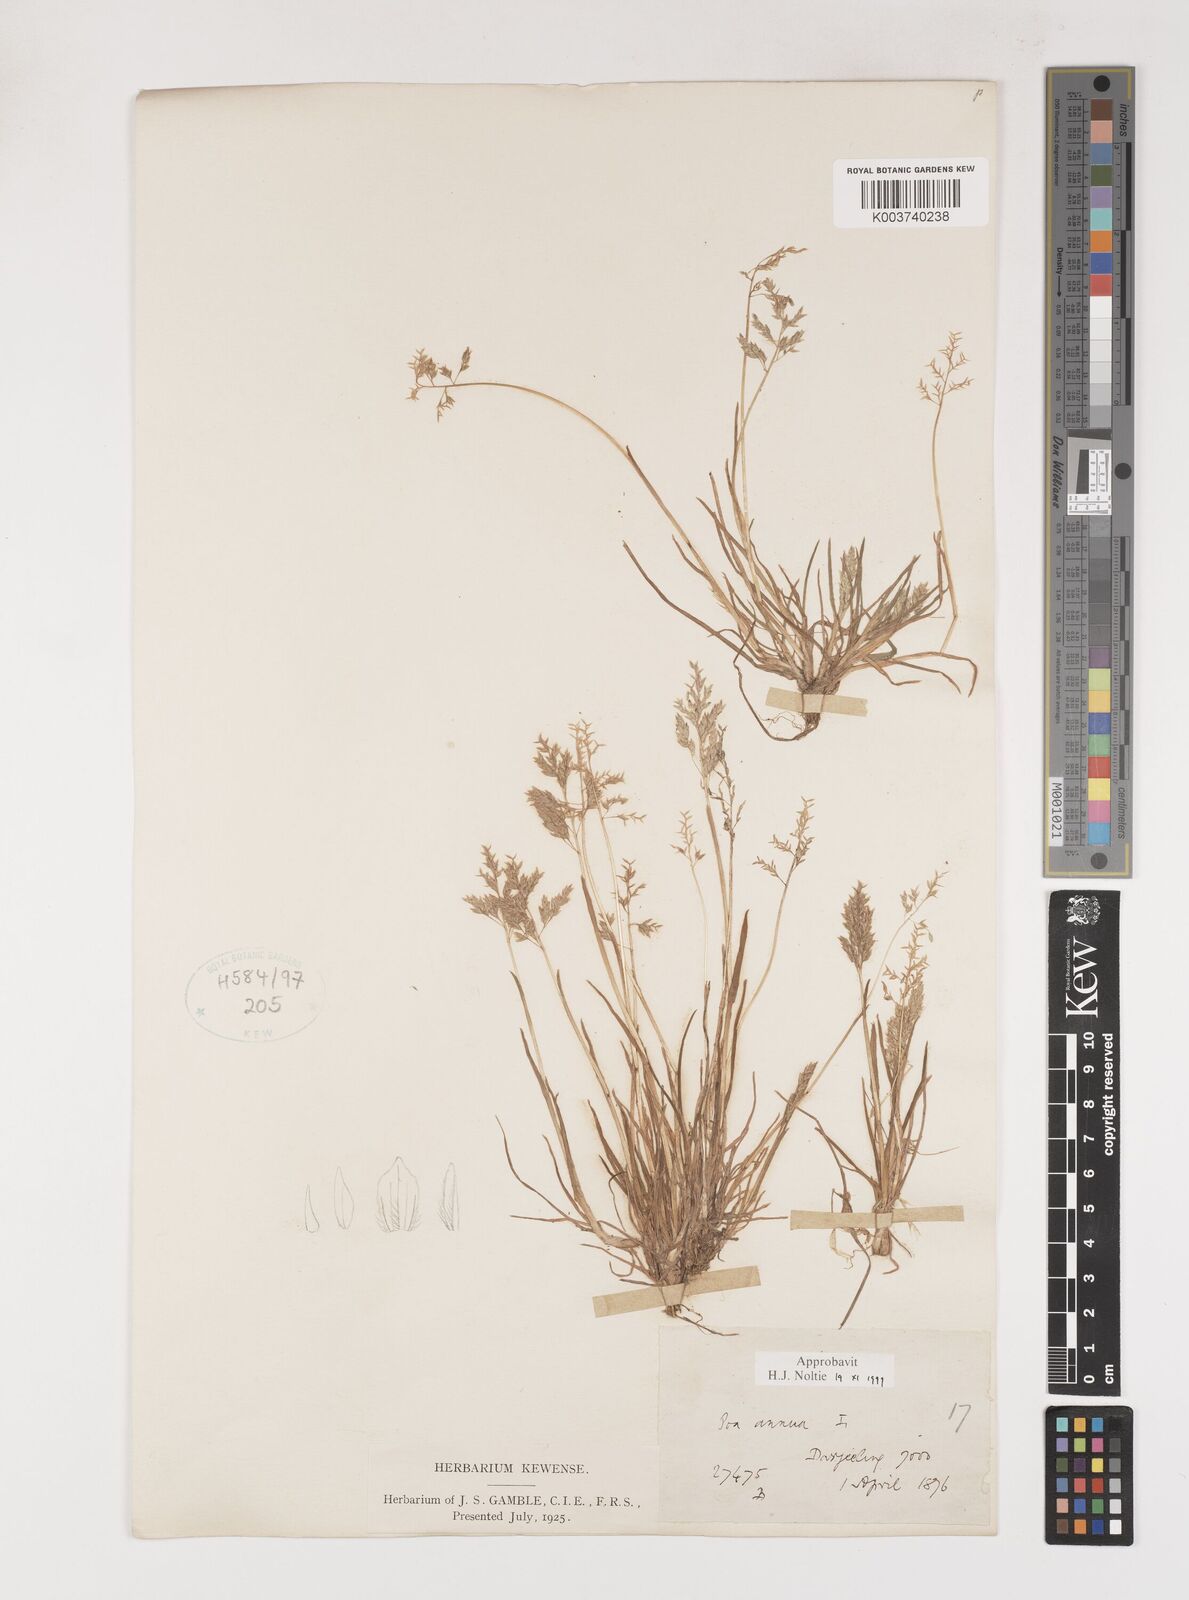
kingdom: Plantae
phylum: Tracheophyta
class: Liliopsida
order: Poales
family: Poaceae
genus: Poa
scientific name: Poa annua
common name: Annual bluegrass
